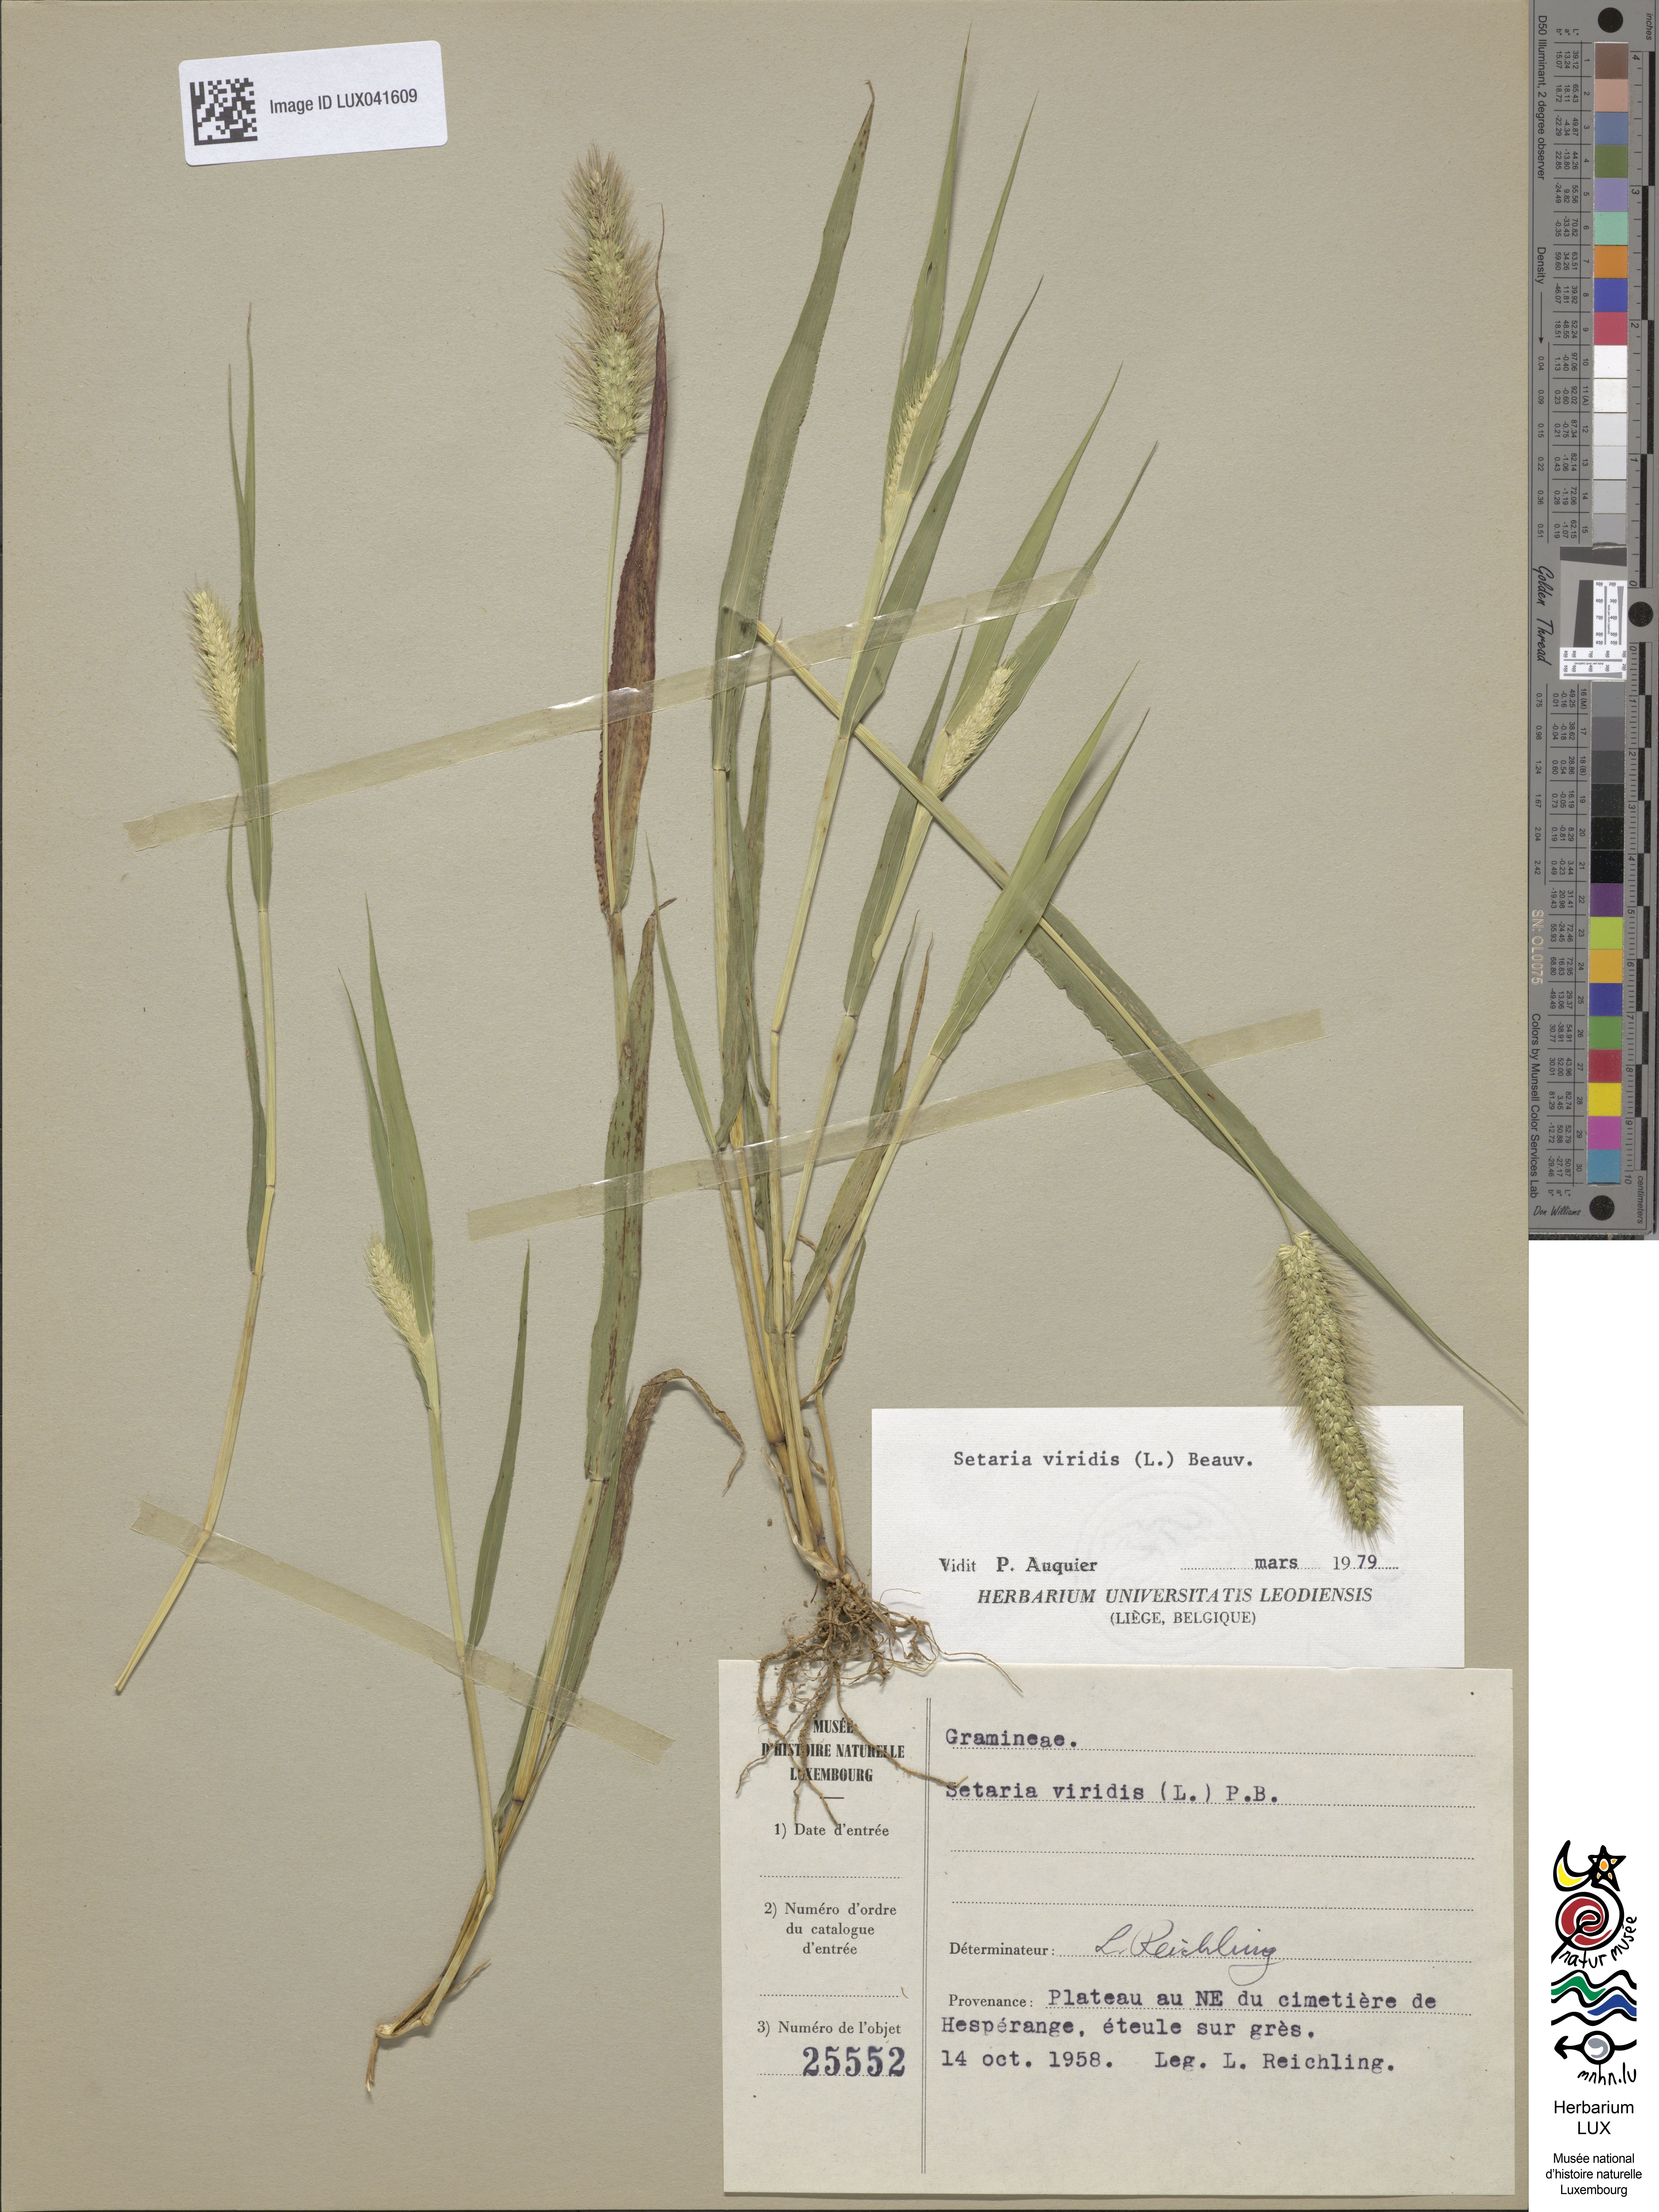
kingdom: Plantae
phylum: Tracheophyta
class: Liliopsida
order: Poales
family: Poaceae
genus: Setaria
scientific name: Setaria viridis
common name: Green bristlegrass
